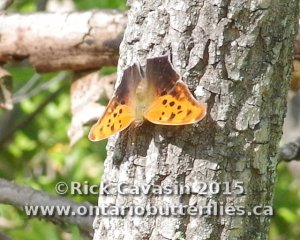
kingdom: Animalia
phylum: Arthropoda
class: Insecta
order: Lepidoptera
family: Nymphalidae
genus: Polygonia
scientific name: Polygonia interrogationis
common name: Question Mark
